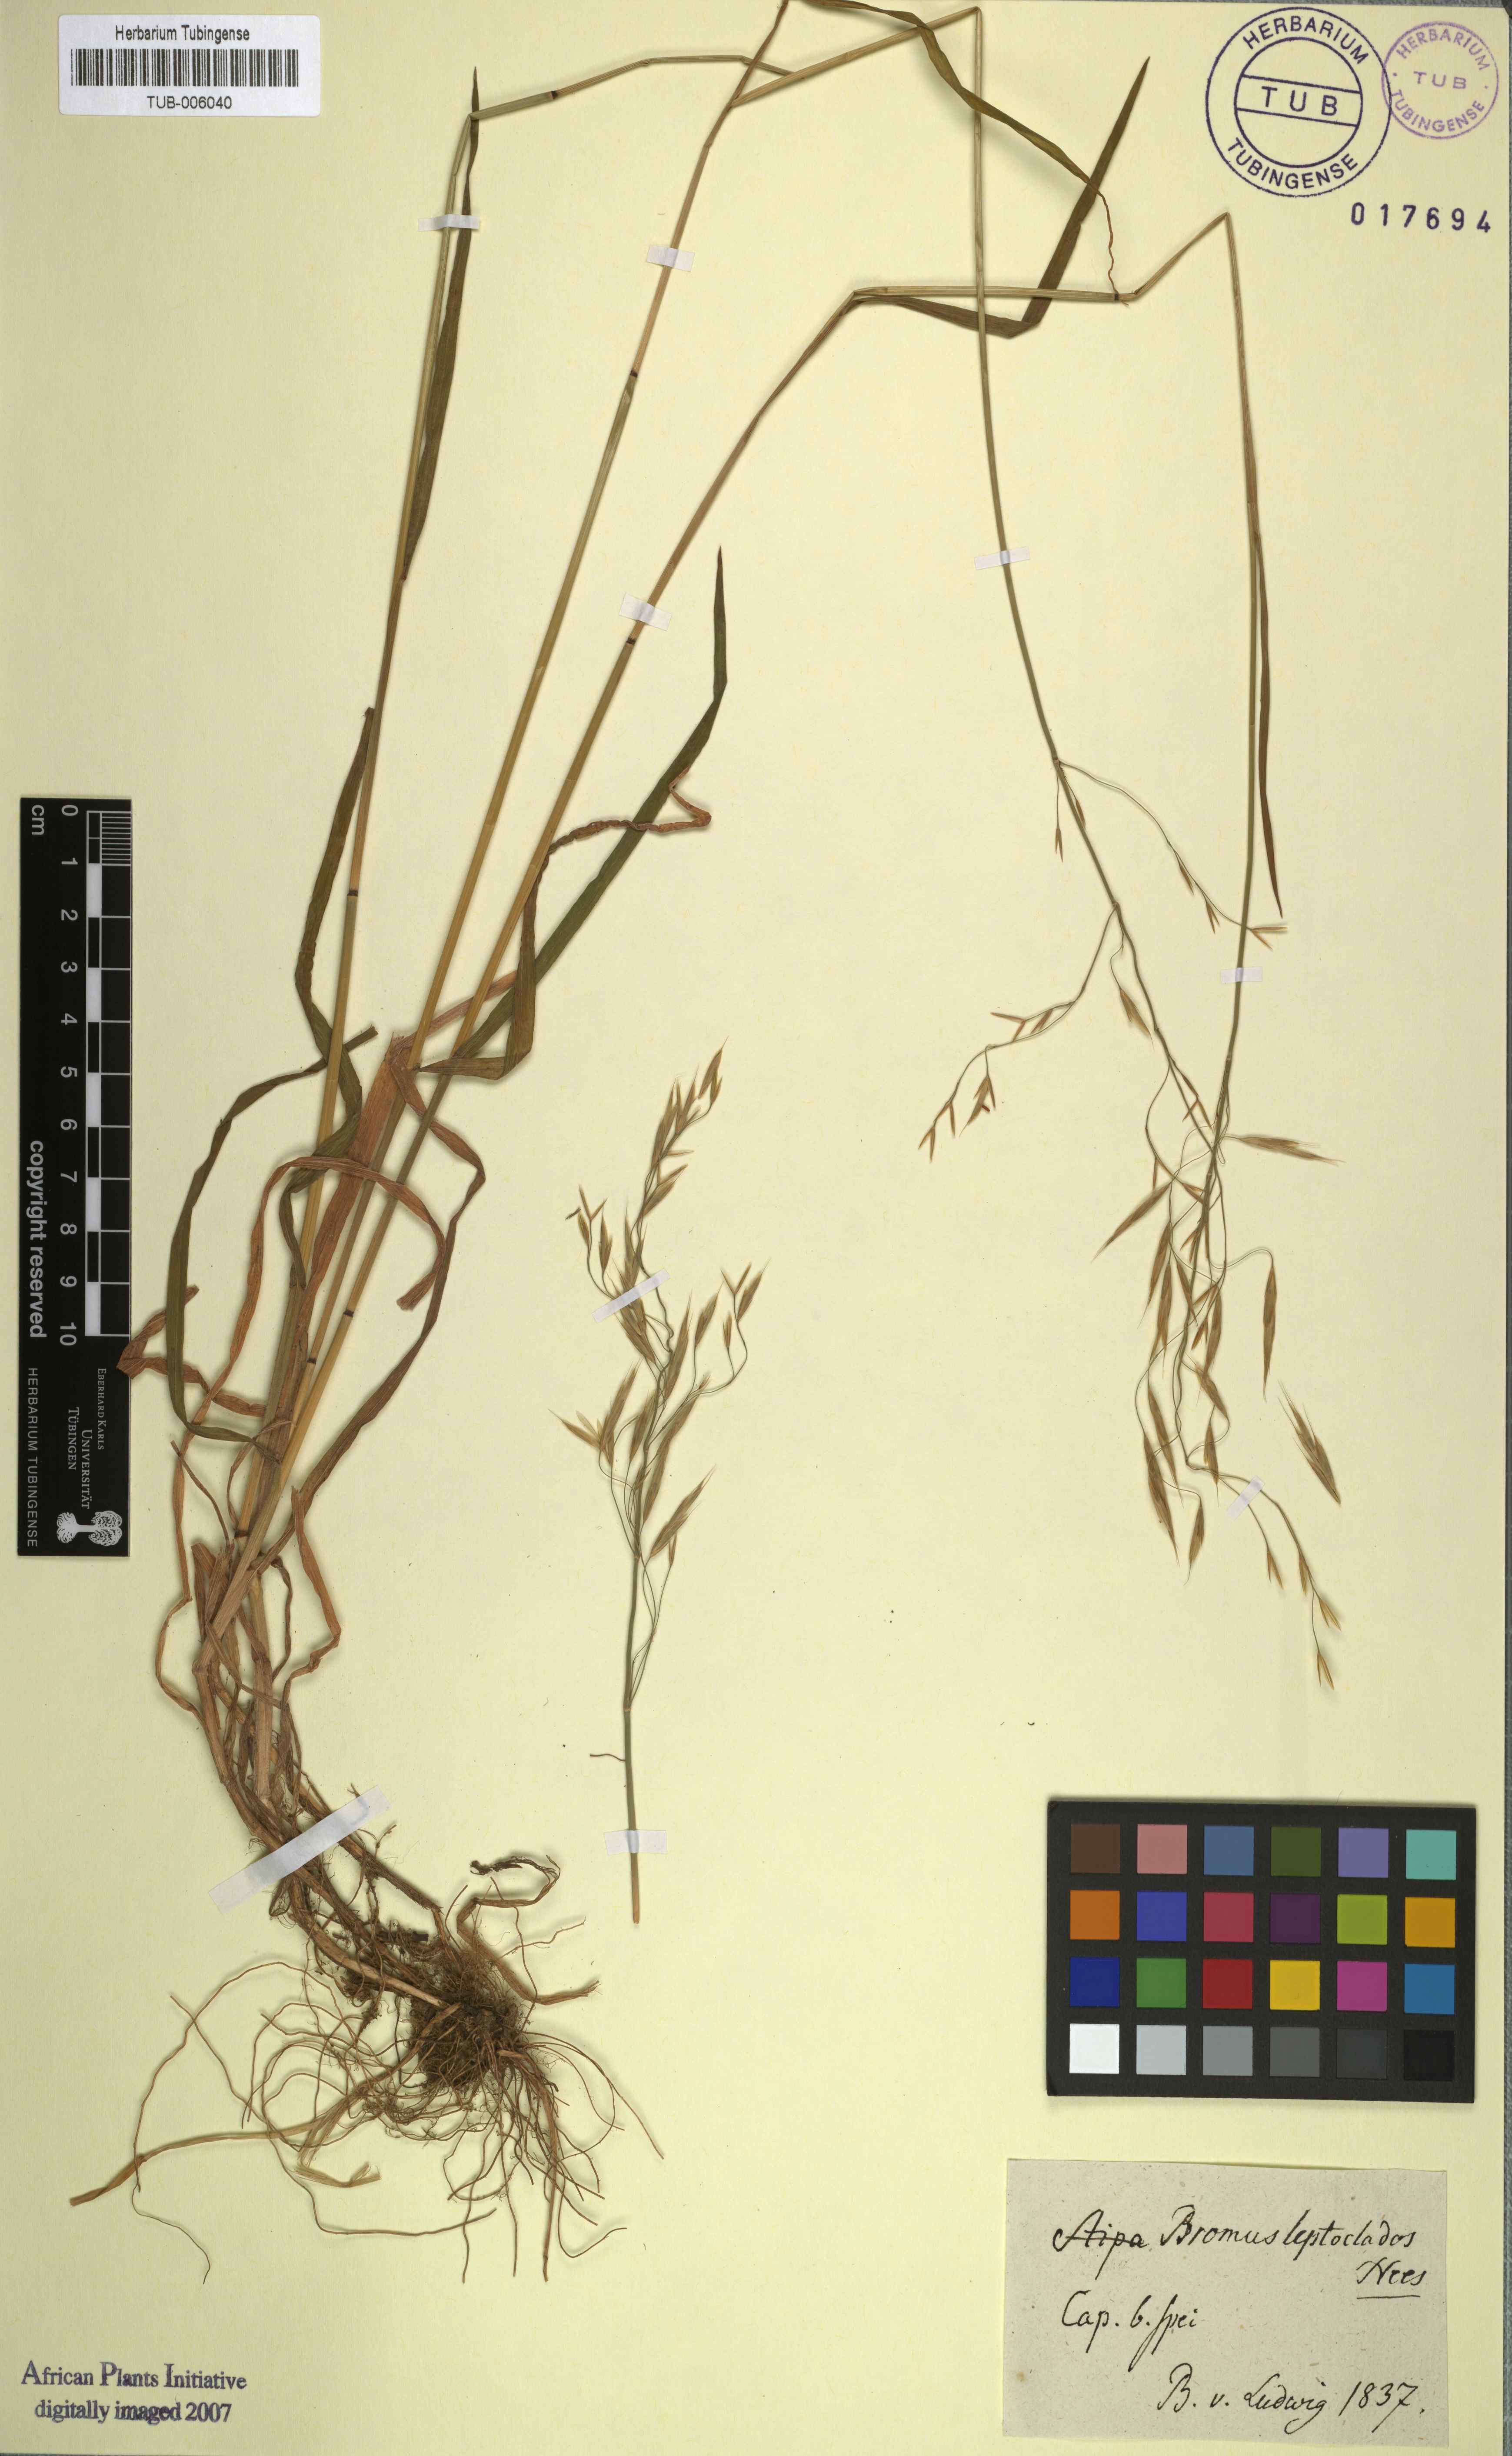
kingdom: Plantae
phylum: Tracheophyta
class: Liliopsida
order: Poales
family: Poaceae
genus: Bromus
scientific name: Bromus leptoclados
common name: Mountain bromegrass
